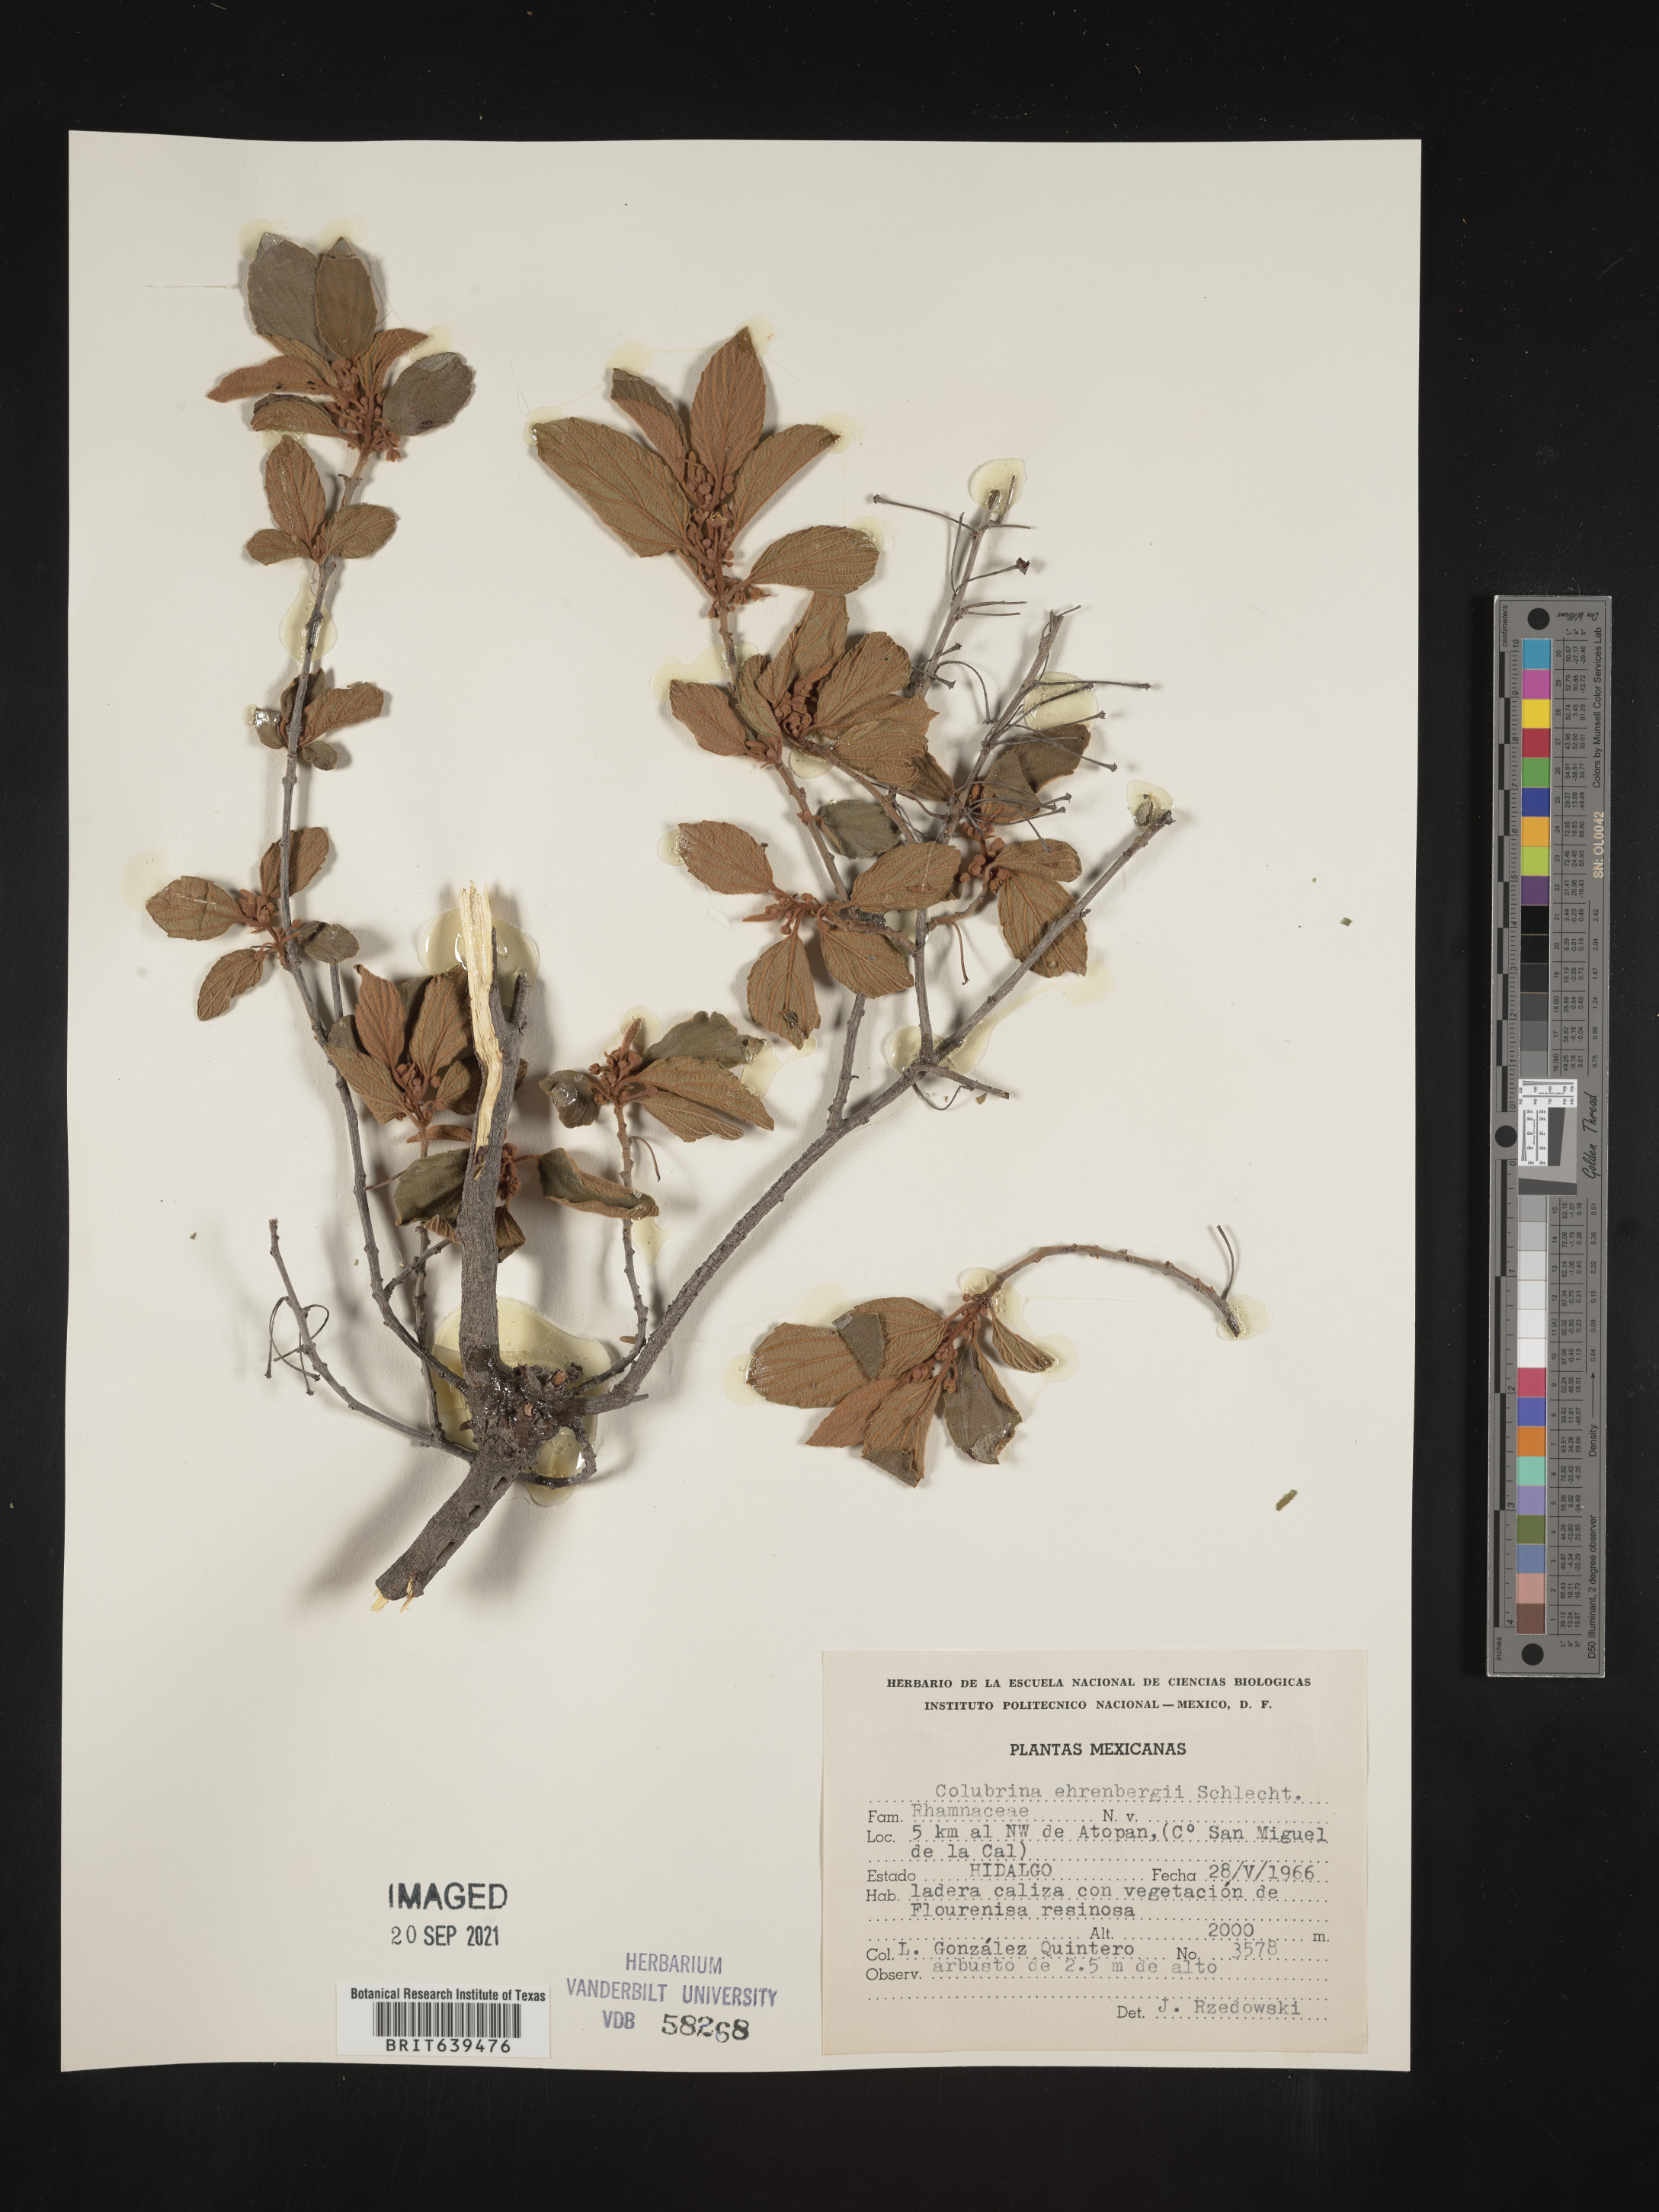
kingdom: Plantae
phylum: Tracheophyta
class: Magnoliopsida
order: Rosales
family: Rhamnaceae
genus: Colubrina
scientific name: Colubrina
